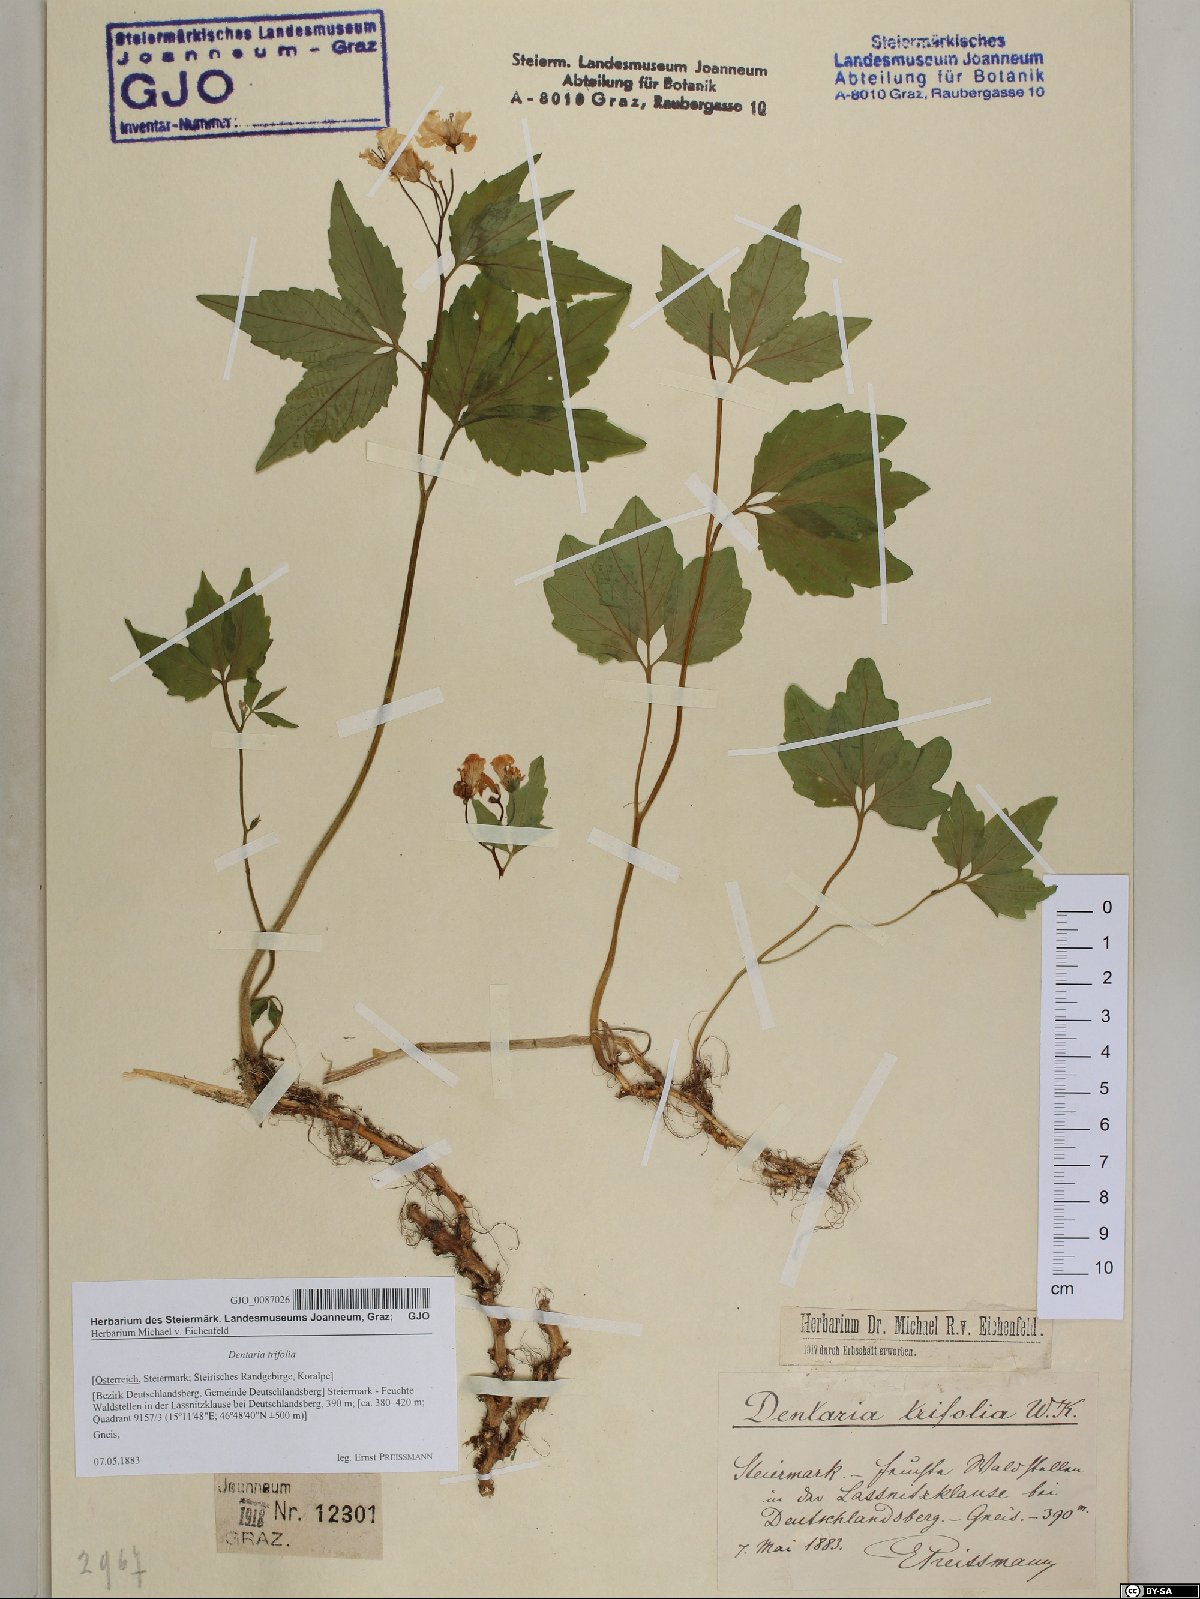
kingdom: Plantae
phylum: Tracheophyta
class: Magnoliopsida
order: Brassicales
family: Brassicaceae
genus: Cardamine
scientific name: Cardamine waldsteinii
